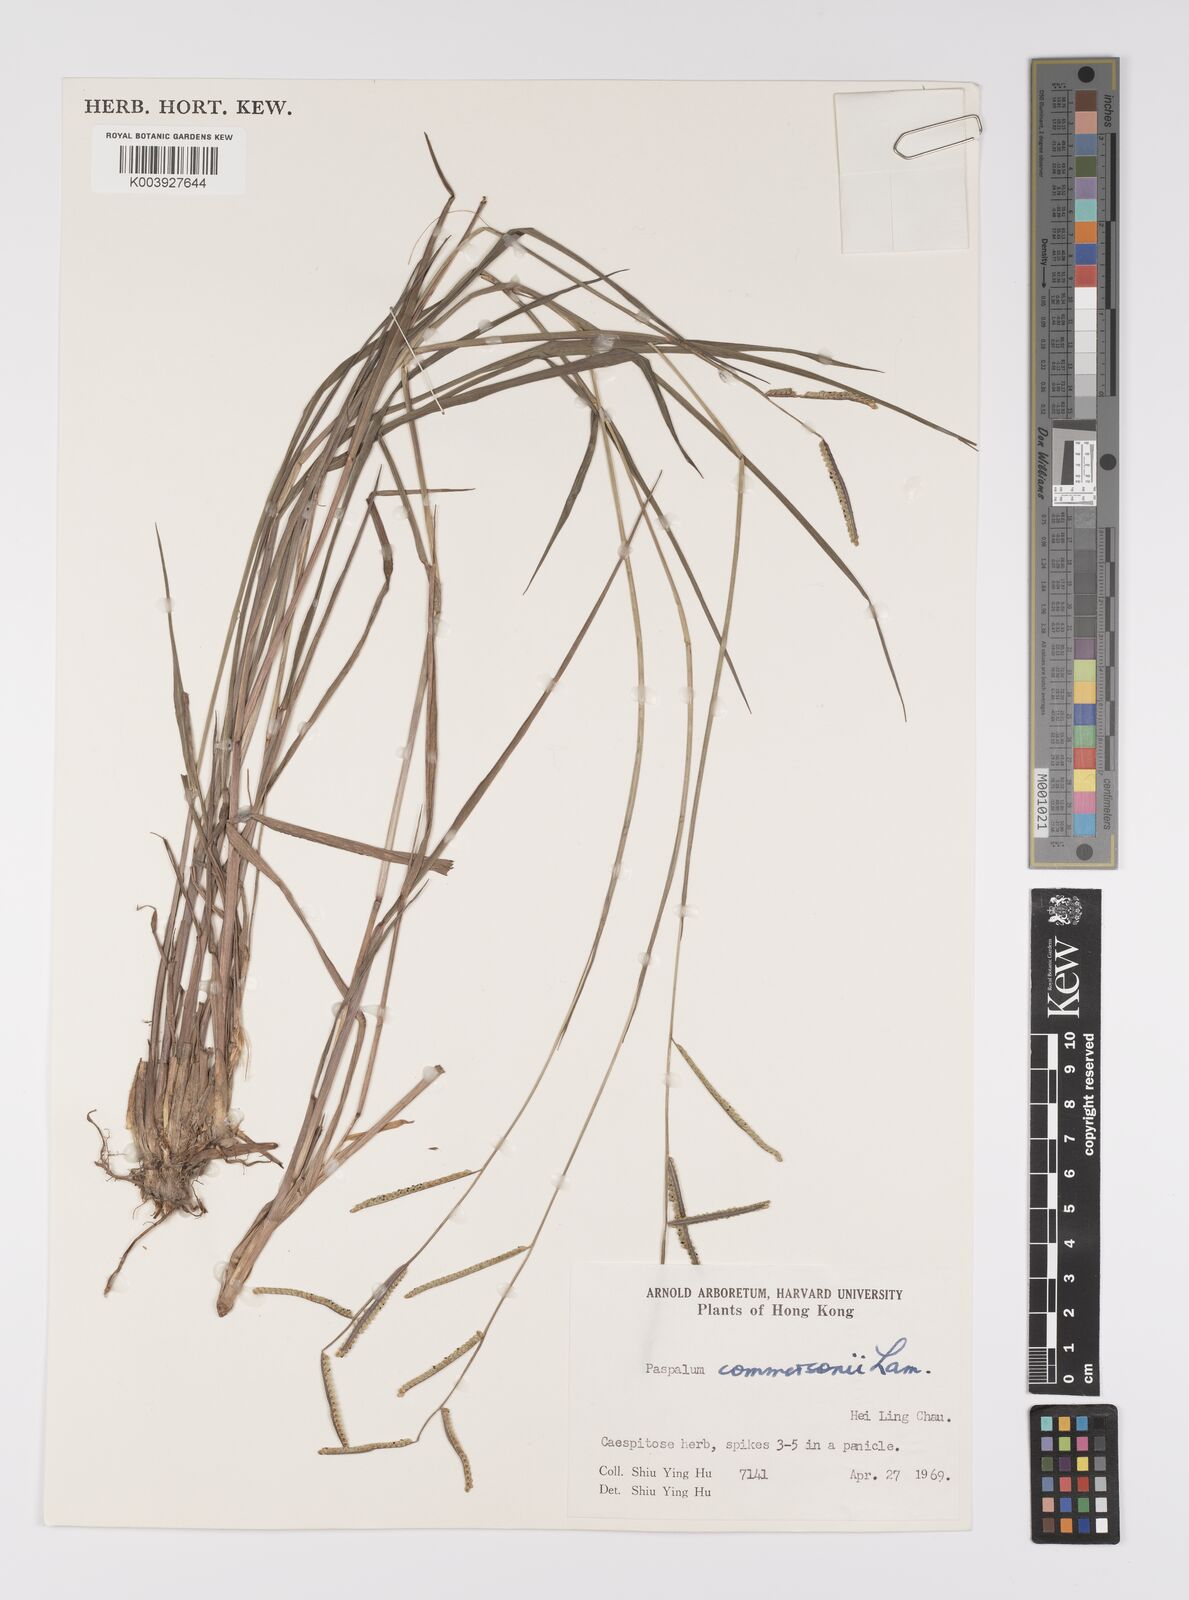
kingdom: Plantae
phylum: Tracheophyta
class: Liliopsida
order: Poales
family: Poaceae
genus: Paspalum
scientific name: Paspalum orbiculare
